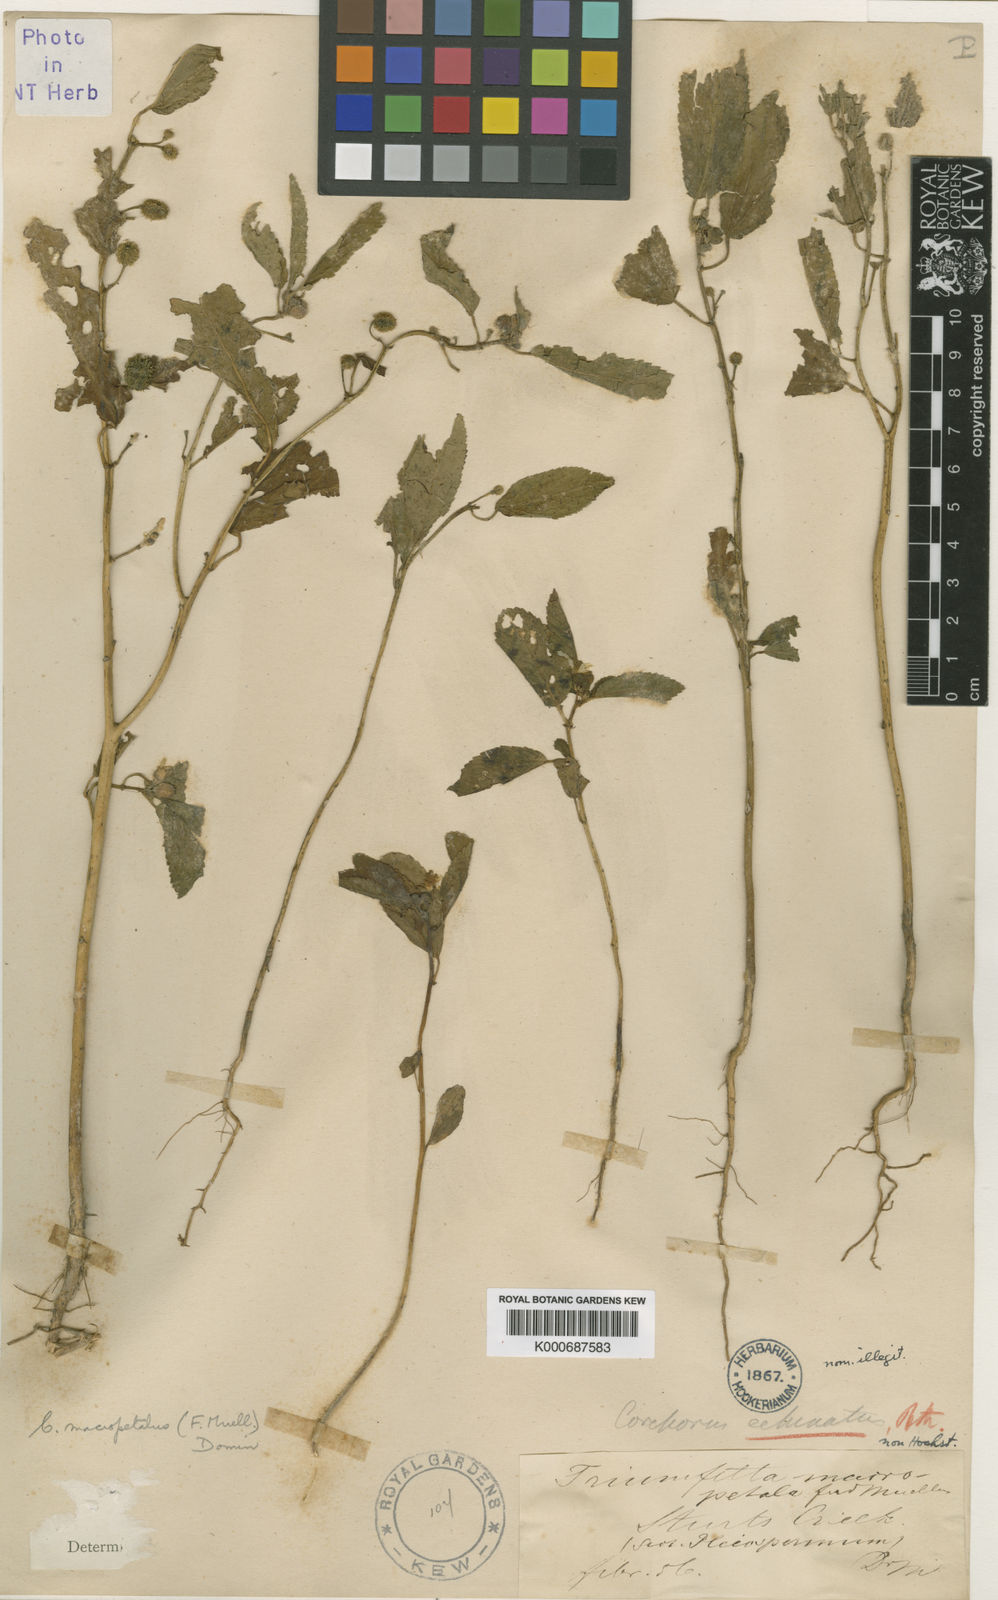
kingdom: Plantae
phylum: Tracheophyta
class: Magnoliopsida
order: Malvales
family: Malvaceae
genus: Corchorus
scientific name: Corchorus parviflorus
